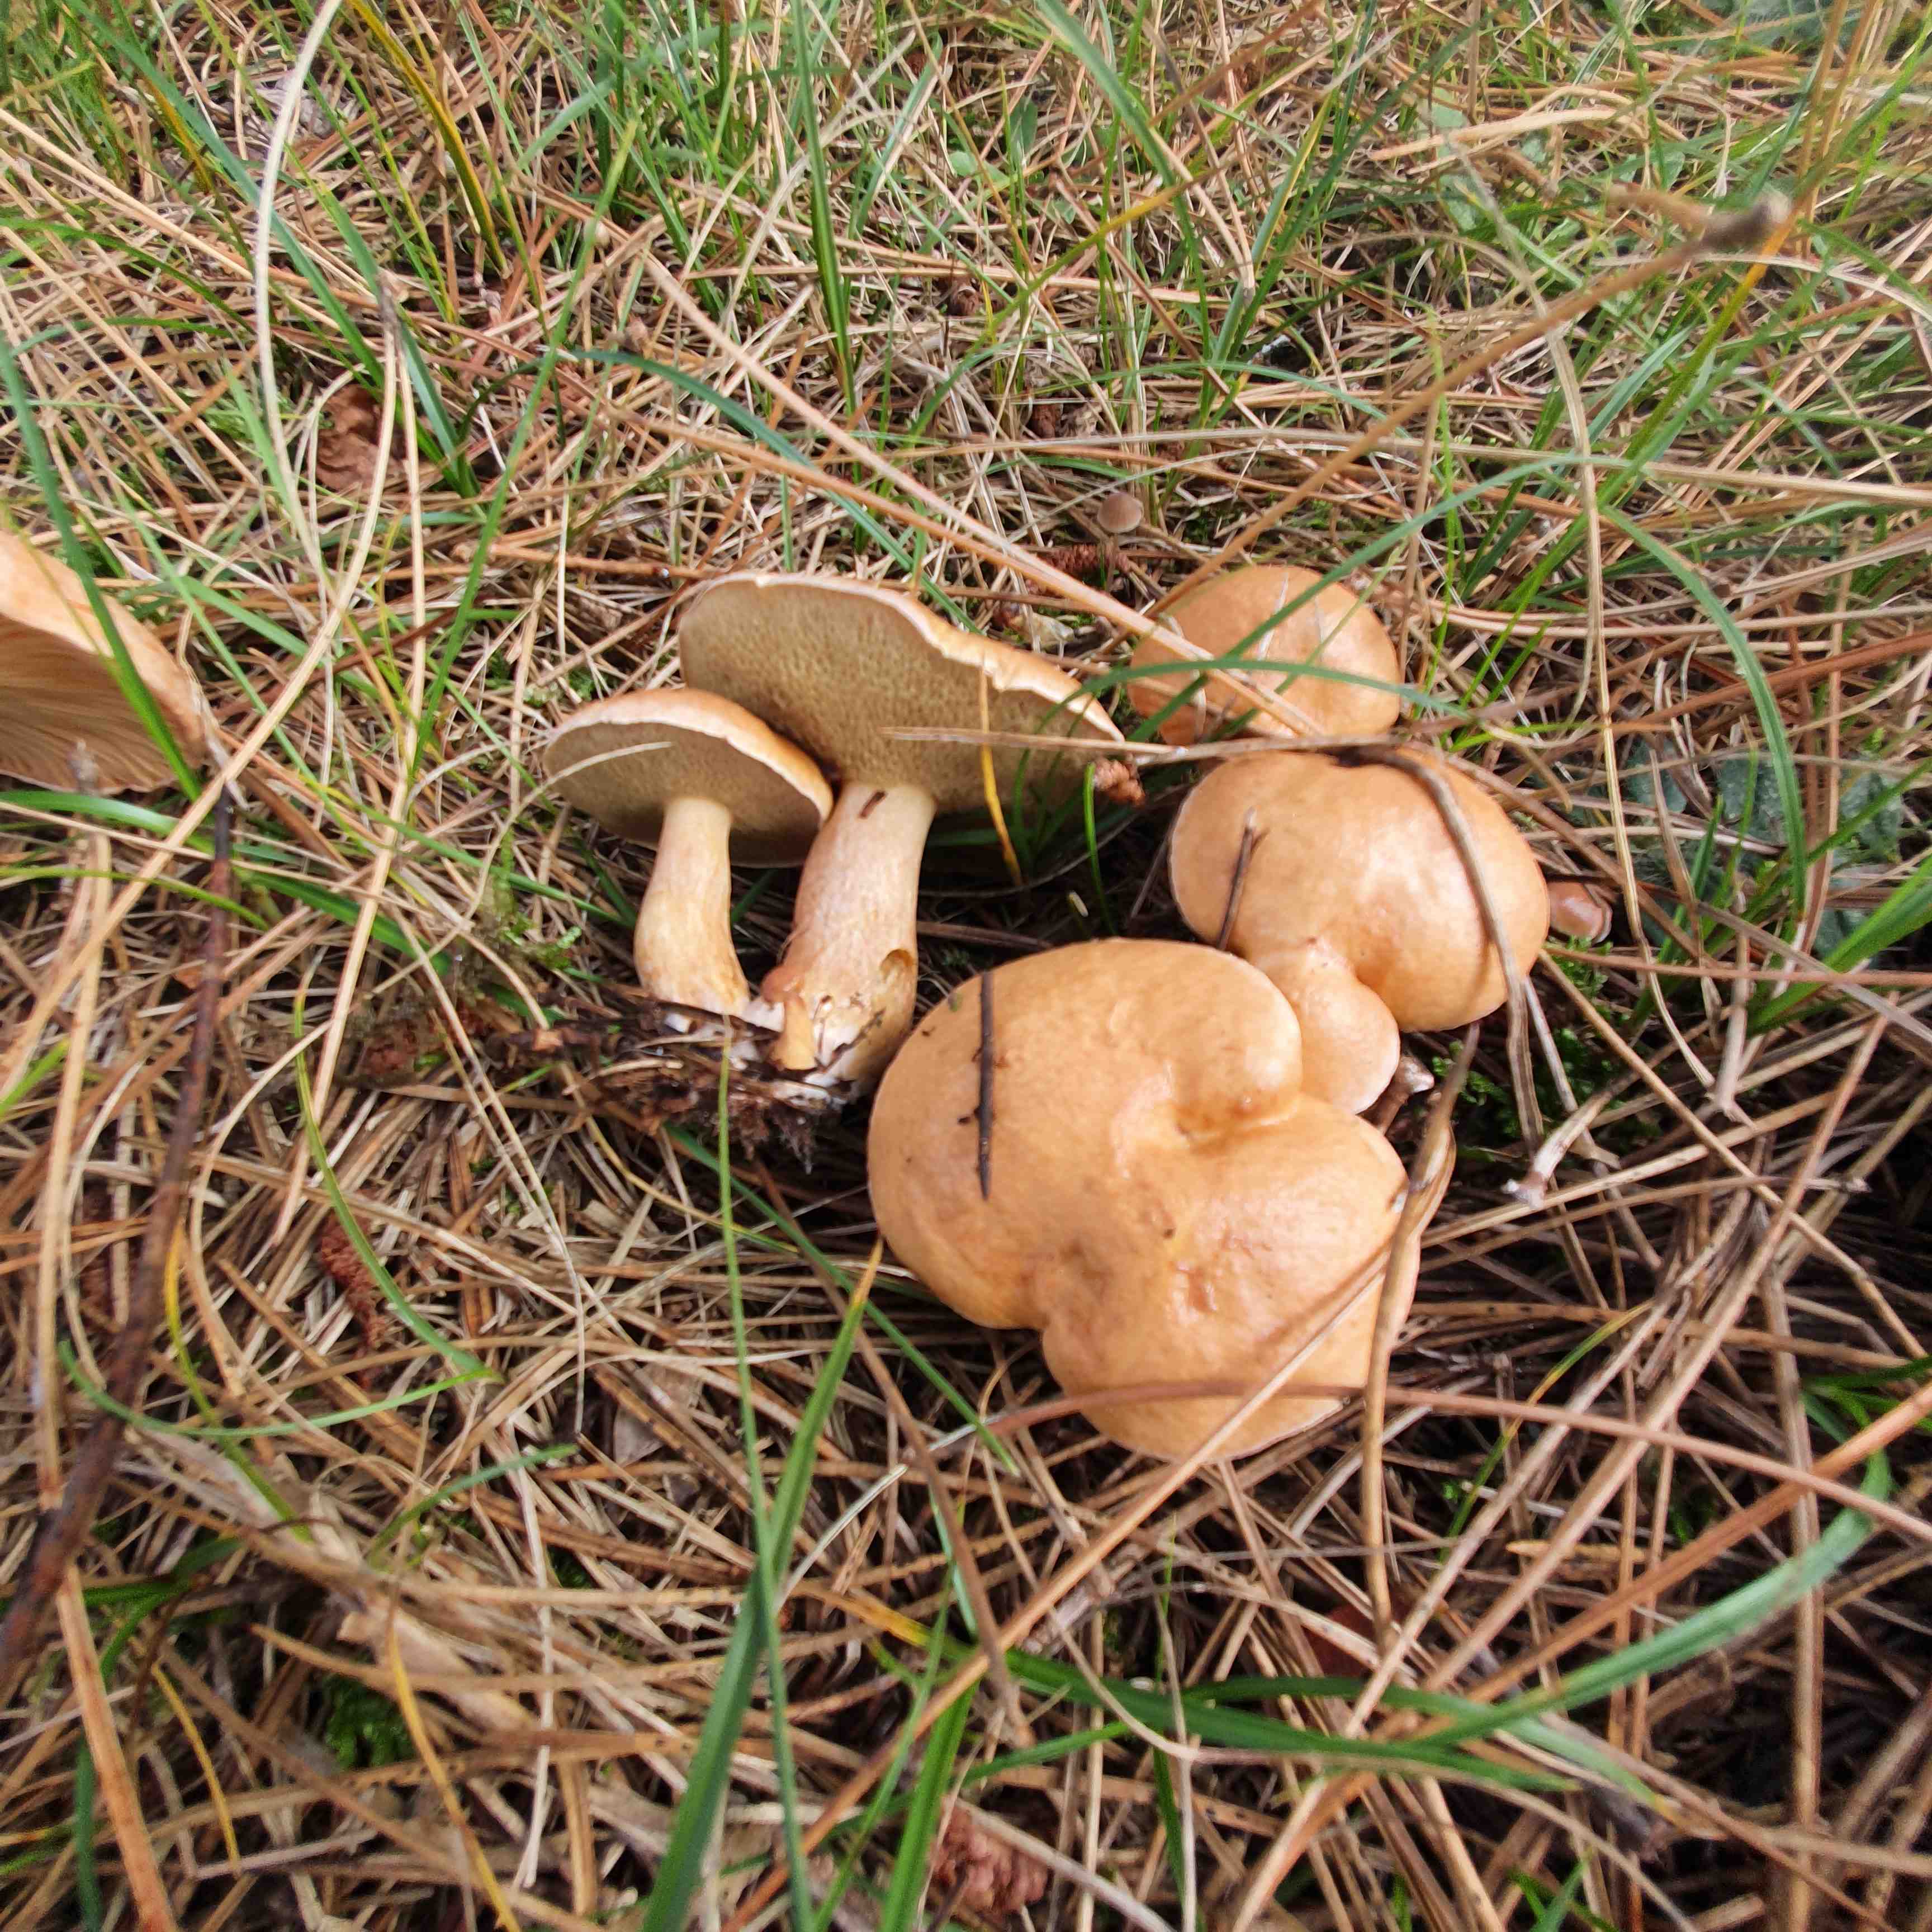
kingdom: Fungi
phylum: Basidiomycota
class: Agaricomycetes
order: Boletales
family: Suillaceae
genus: Suillus
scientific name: Suillus bovinus
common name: grovporet slimrørhat
